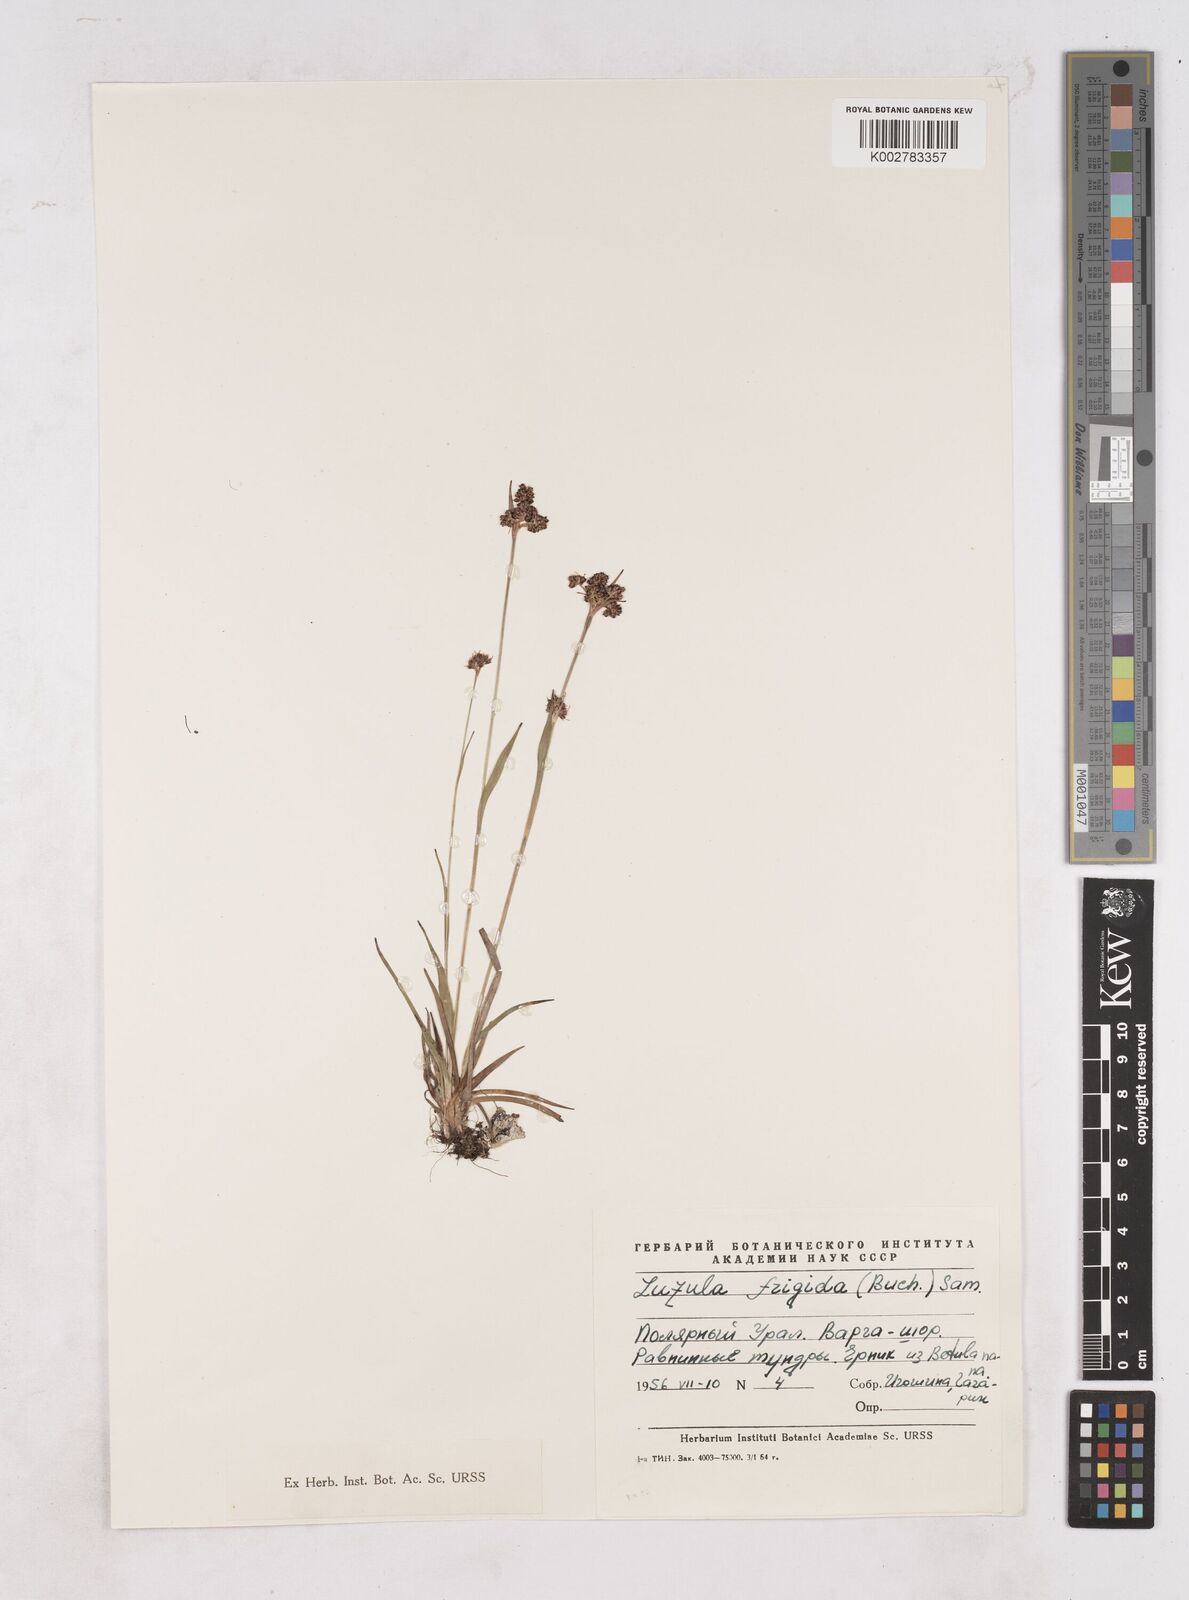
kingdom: Plantae
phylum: Tracheophyta
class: Liliopsida
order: Poales
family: Juncaceae
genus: Luzula
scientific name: Luzula multiflora
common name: Heath wood-rush
